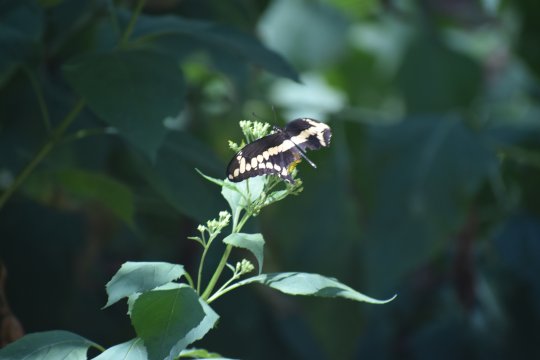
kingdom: Animalia
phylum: Arthropoda
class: Insecta
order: Lepidoptera
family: Papilionidae
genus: Papilio
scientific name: Papilio cresphontes
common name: Eastern Giant Swallowtail
